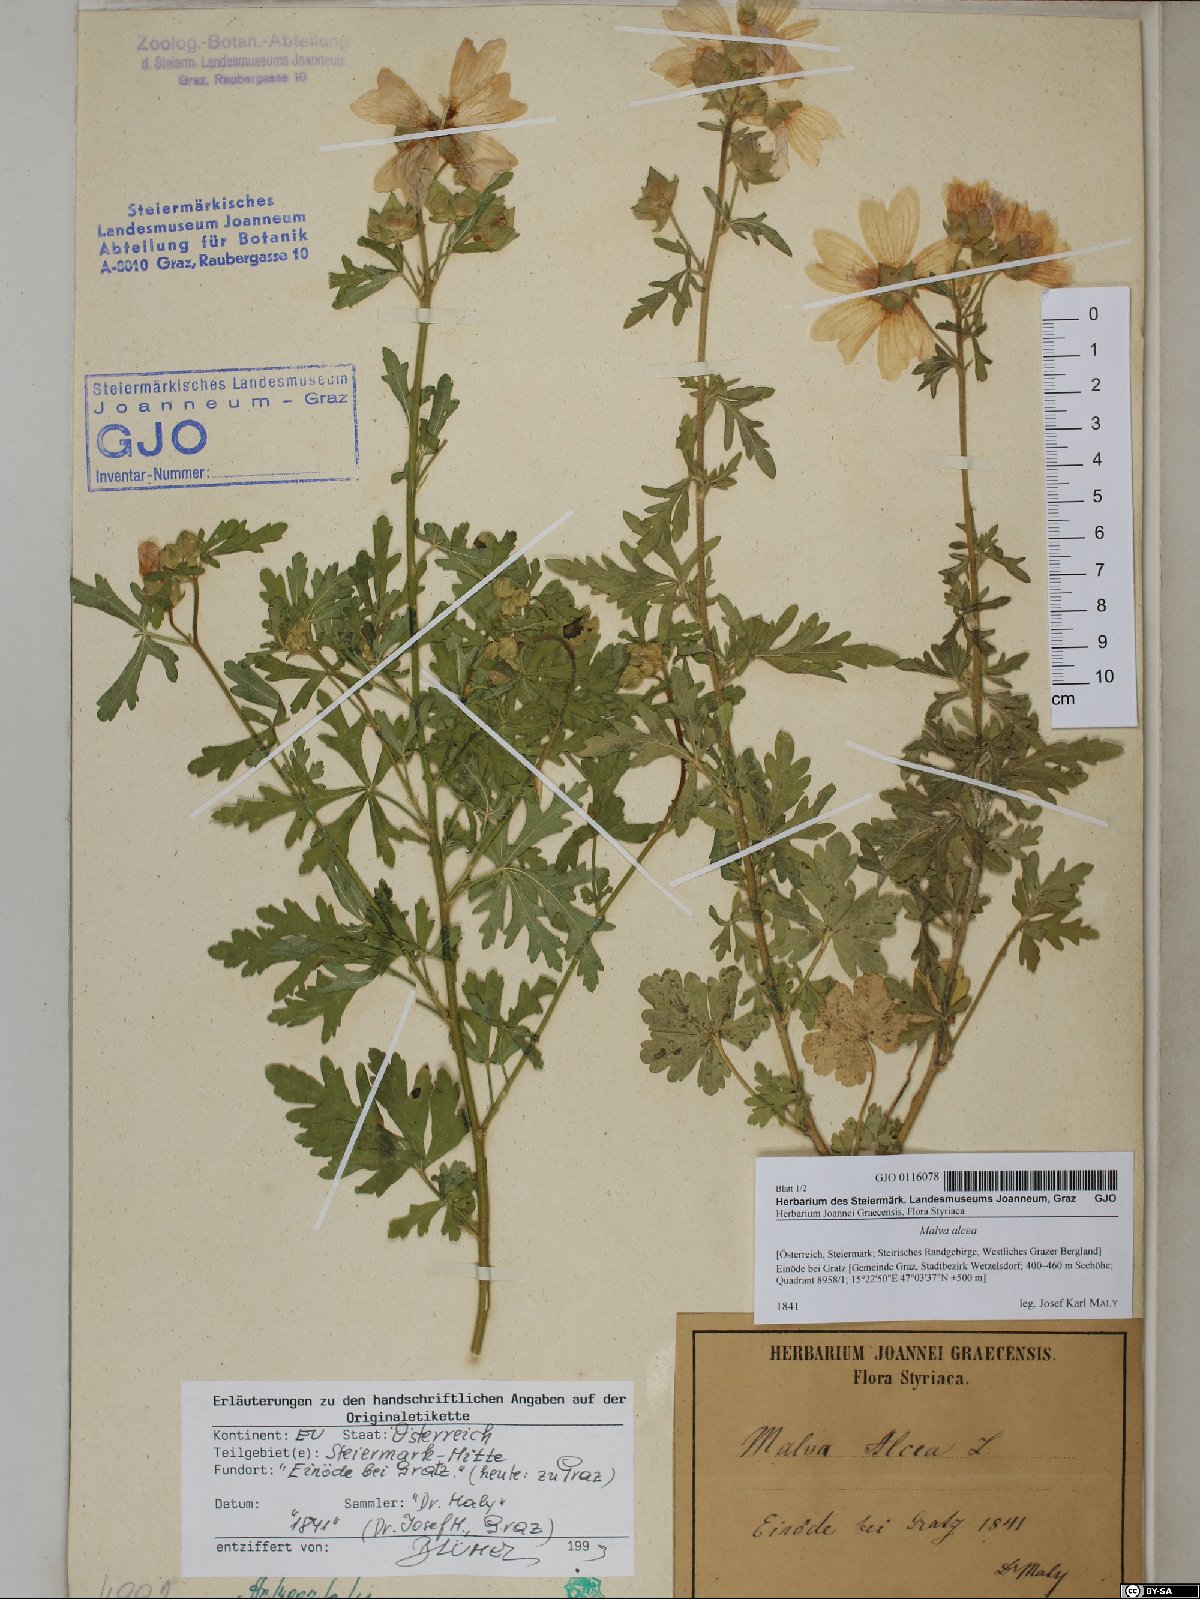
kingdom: Plantae
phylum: Tracheophyta
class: Magnoliopsida
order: Malvales
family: Malvaceae
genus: Malva
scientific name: Malva alcea
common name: Greater musk-mallow
